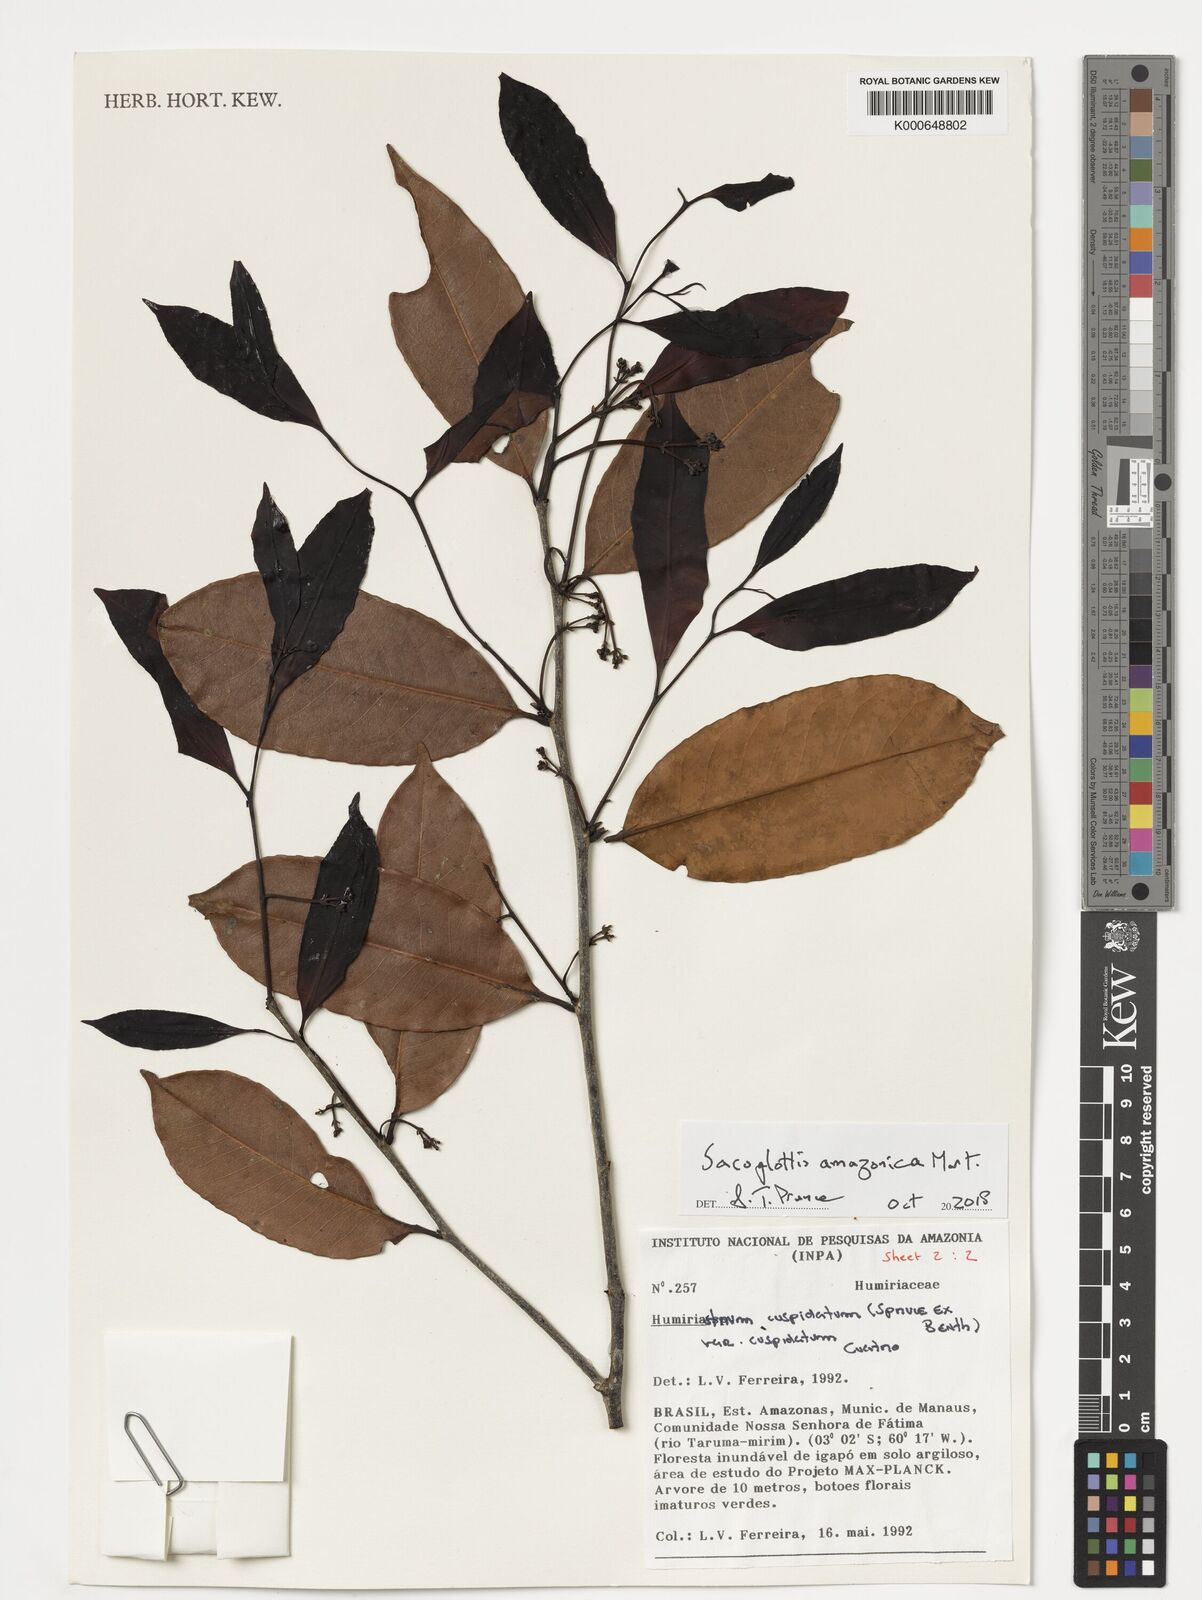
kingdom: Plantae
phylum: Tracheophyta
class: Magnoliopsida
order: Malpighiales
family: Humiriaceae
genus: Sacoglottis
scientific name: Sacoglottis amazonica
